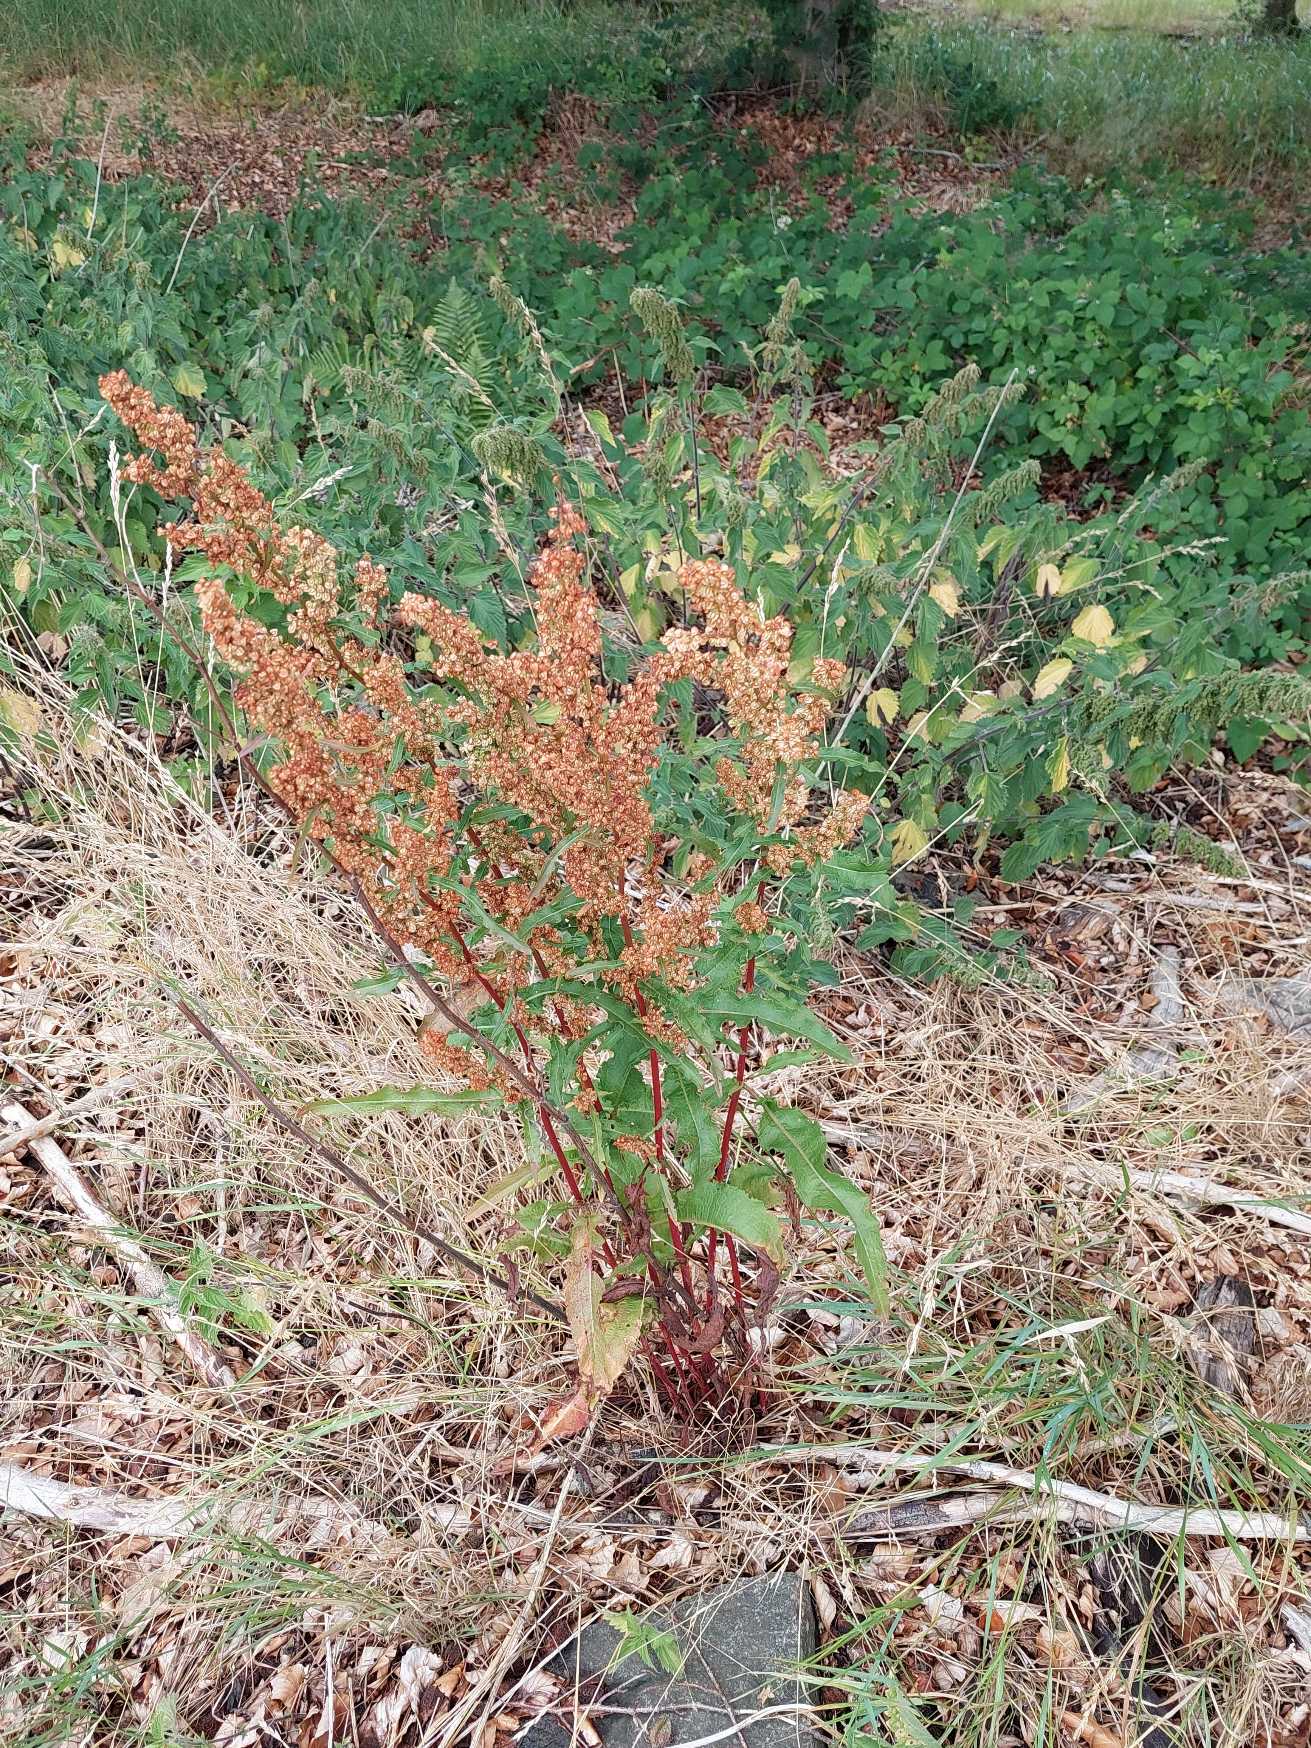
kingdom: Plantae
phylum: Tracheophyta
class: Magnoliopsida
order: Caryophyllales
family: Polygonaceae
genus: Rumex
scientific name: Rumex crispus
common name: Kruset skræppe
